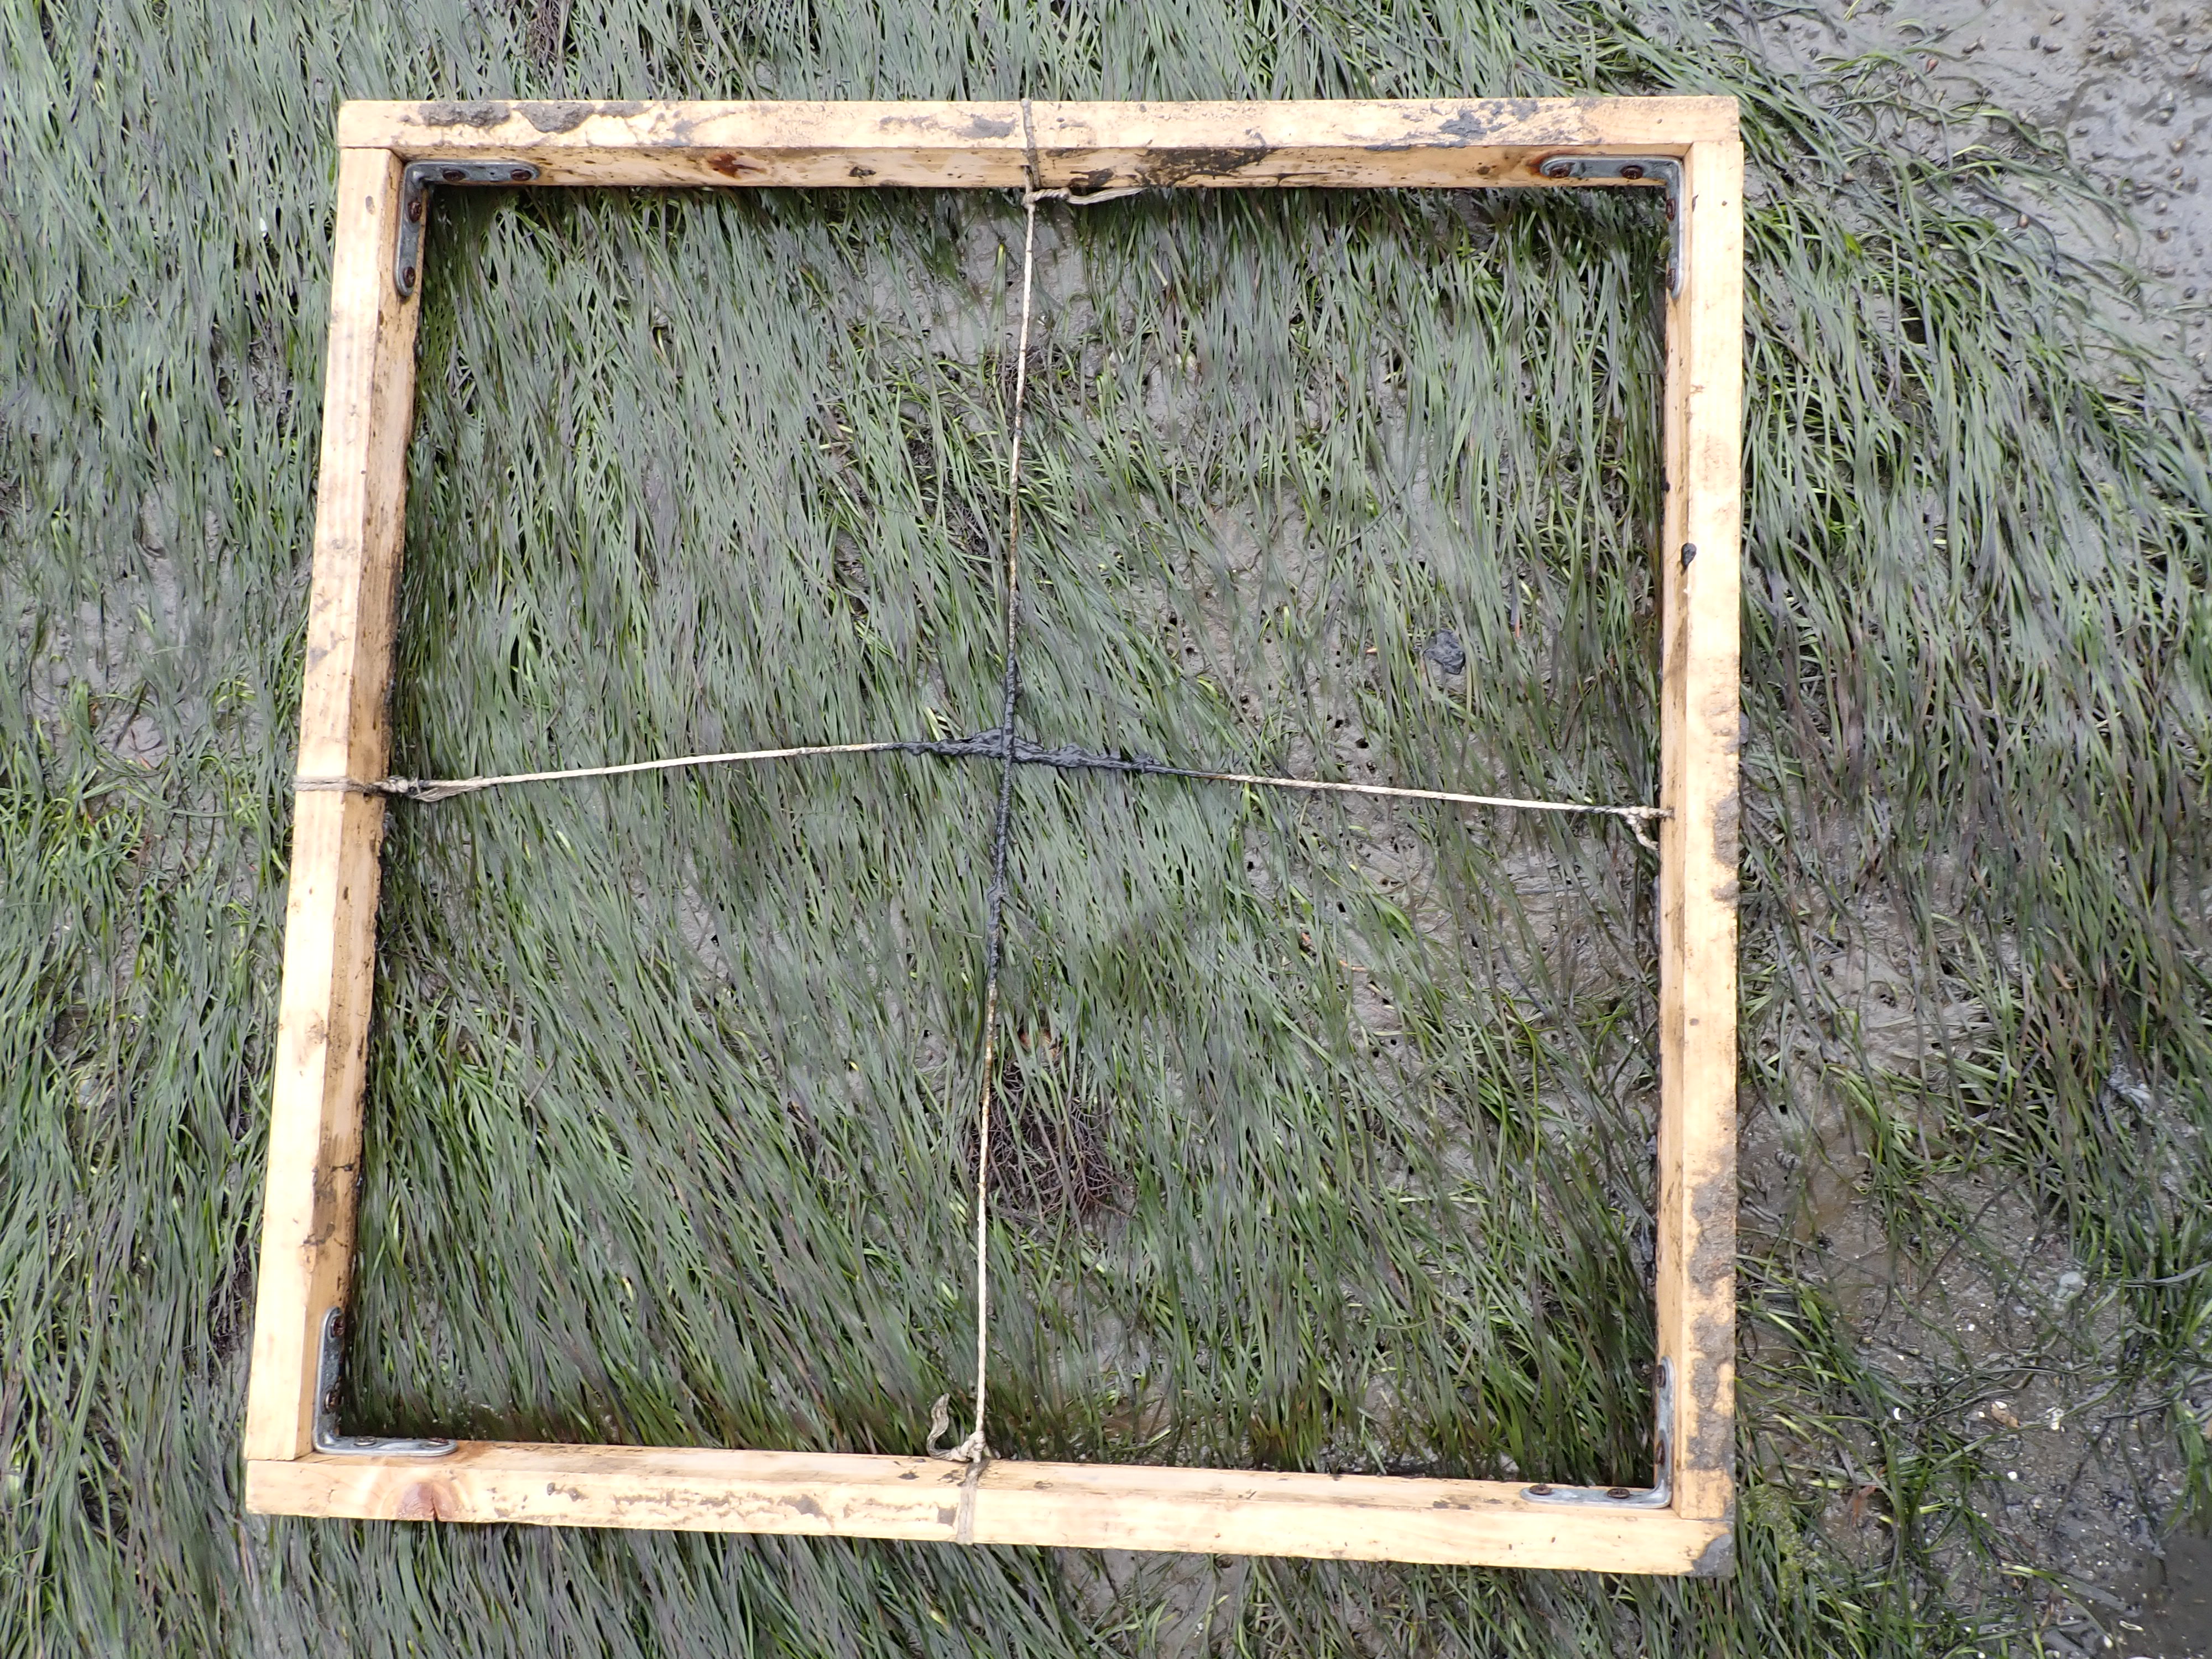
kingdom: Plantae
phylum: Tracheophyta
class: Liliopsida
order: Alismatales
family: Zosteraceae
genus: Zostera
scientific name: Zostera noltii
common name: Dwarf eelgrass
